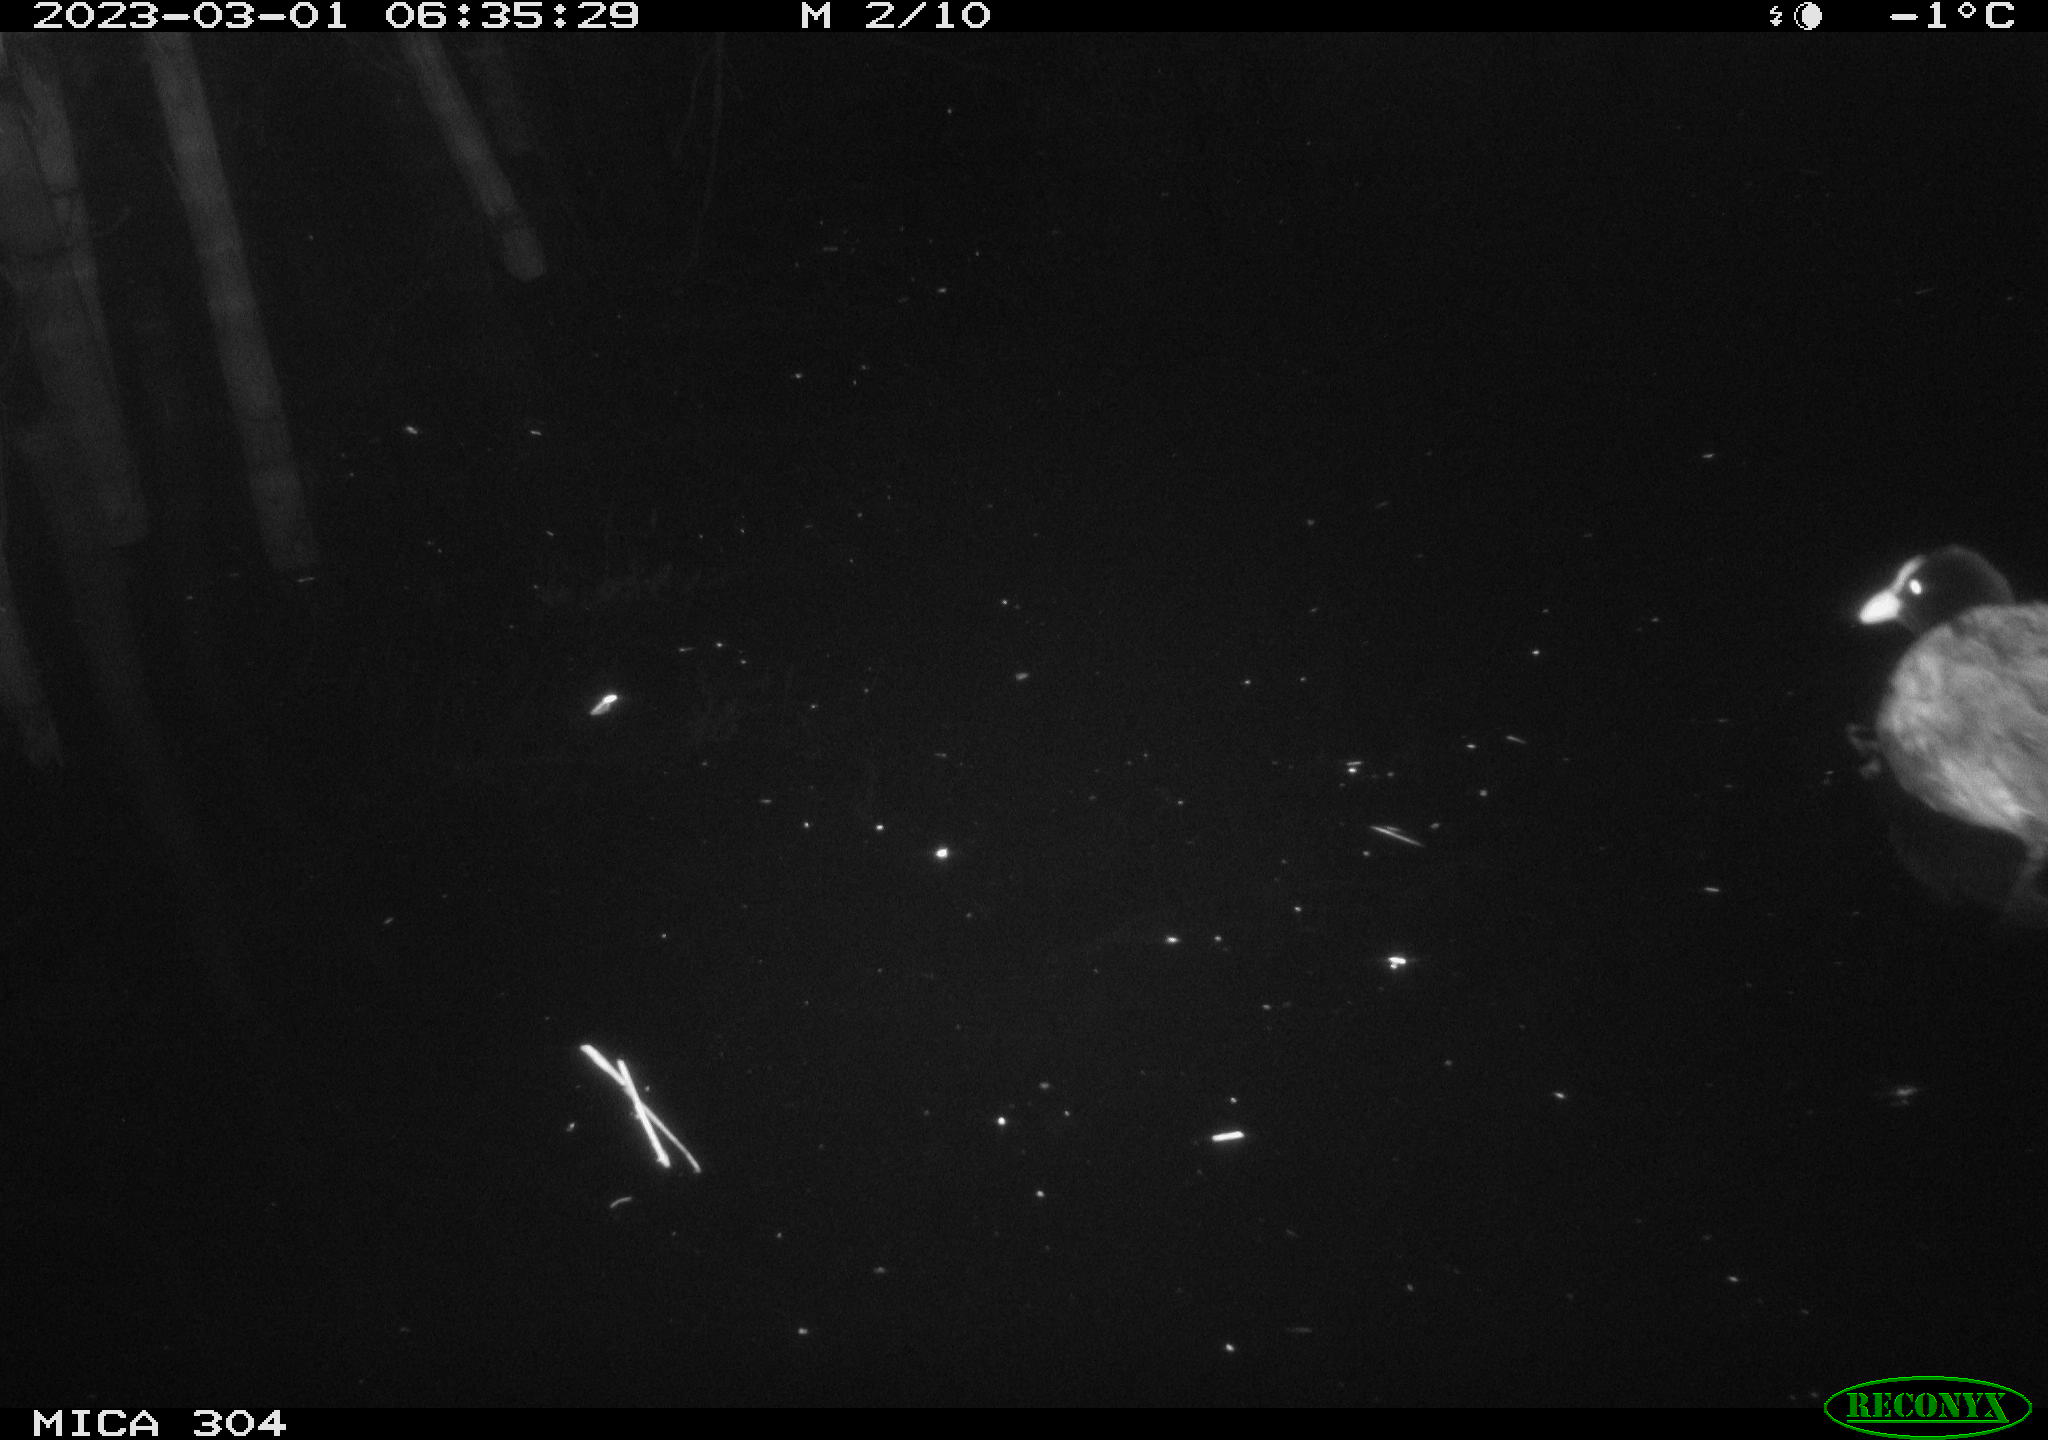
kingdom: Animalia
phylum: Chordata
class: Aves
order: Gruiformes
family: Rallidae
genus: Fulica
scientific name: Fulica atra
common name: Eurasian coot
